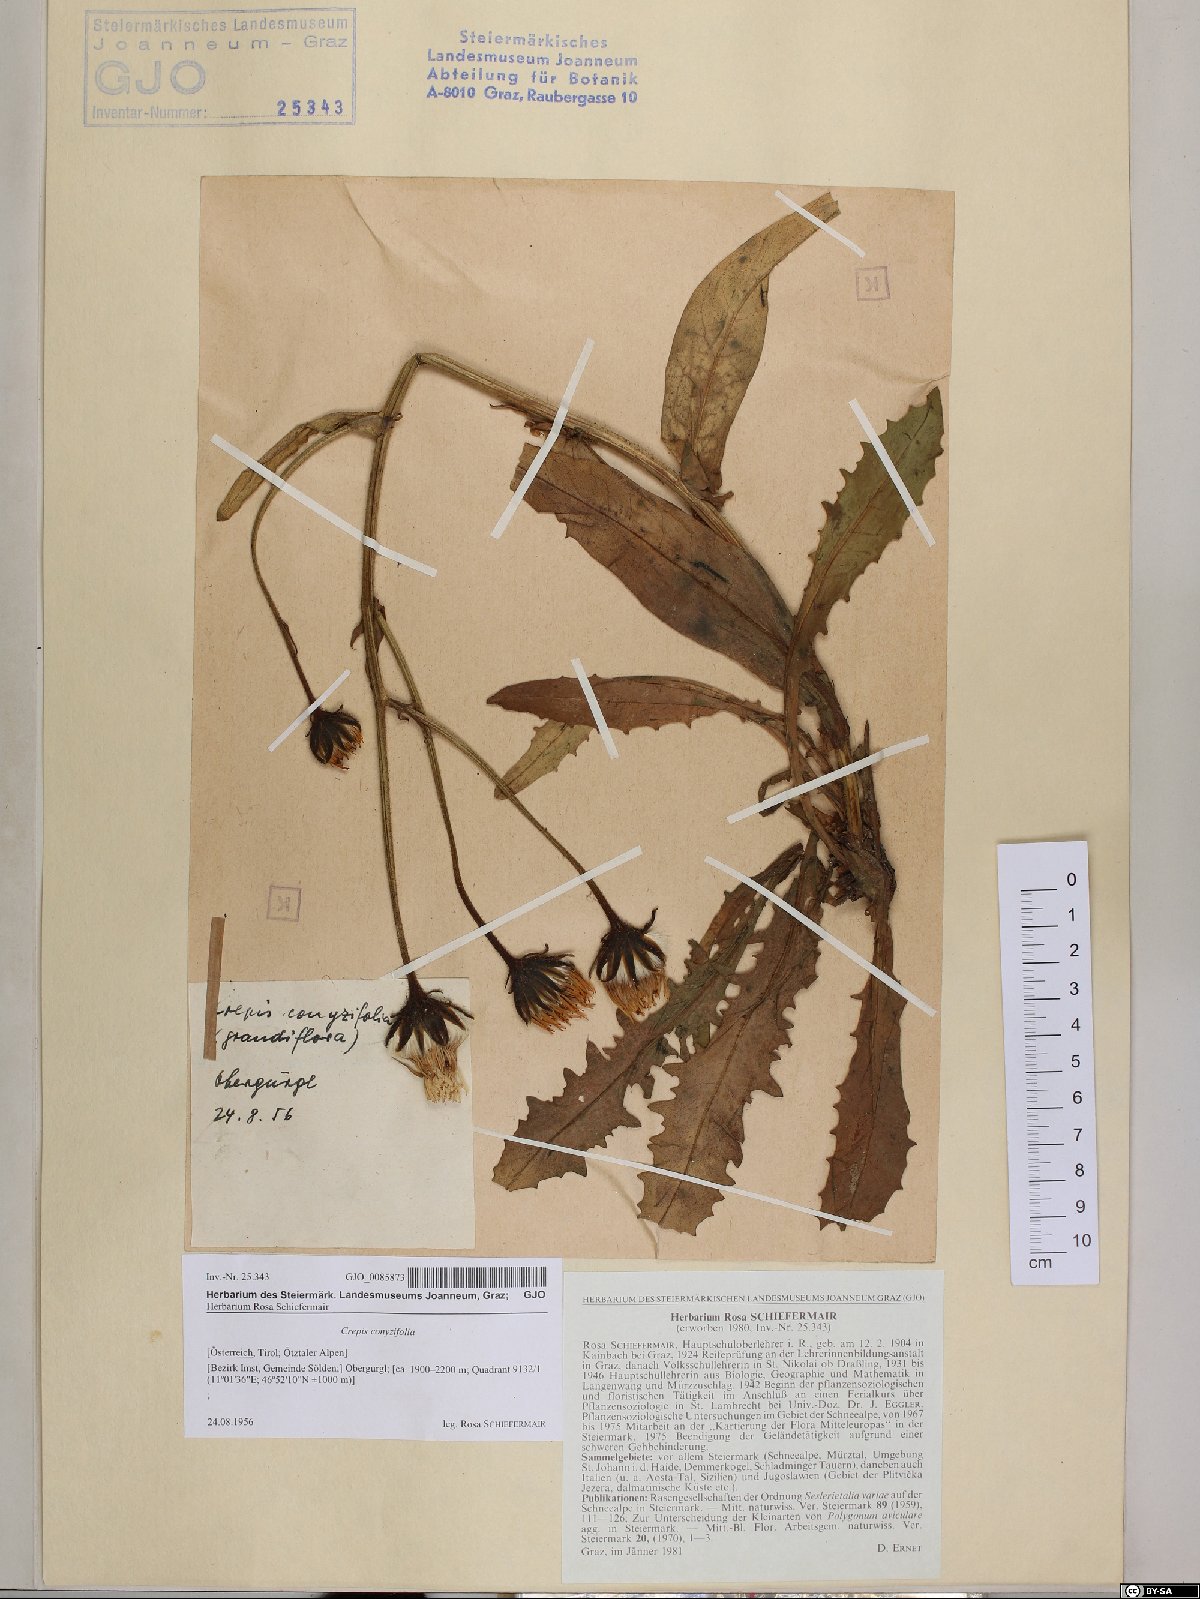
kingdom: Plantae
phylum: Tracheophyta
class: Magnoliopsida
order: Asterales
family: Asteraceae
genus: Crepis
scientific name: Crepis blattarioides
